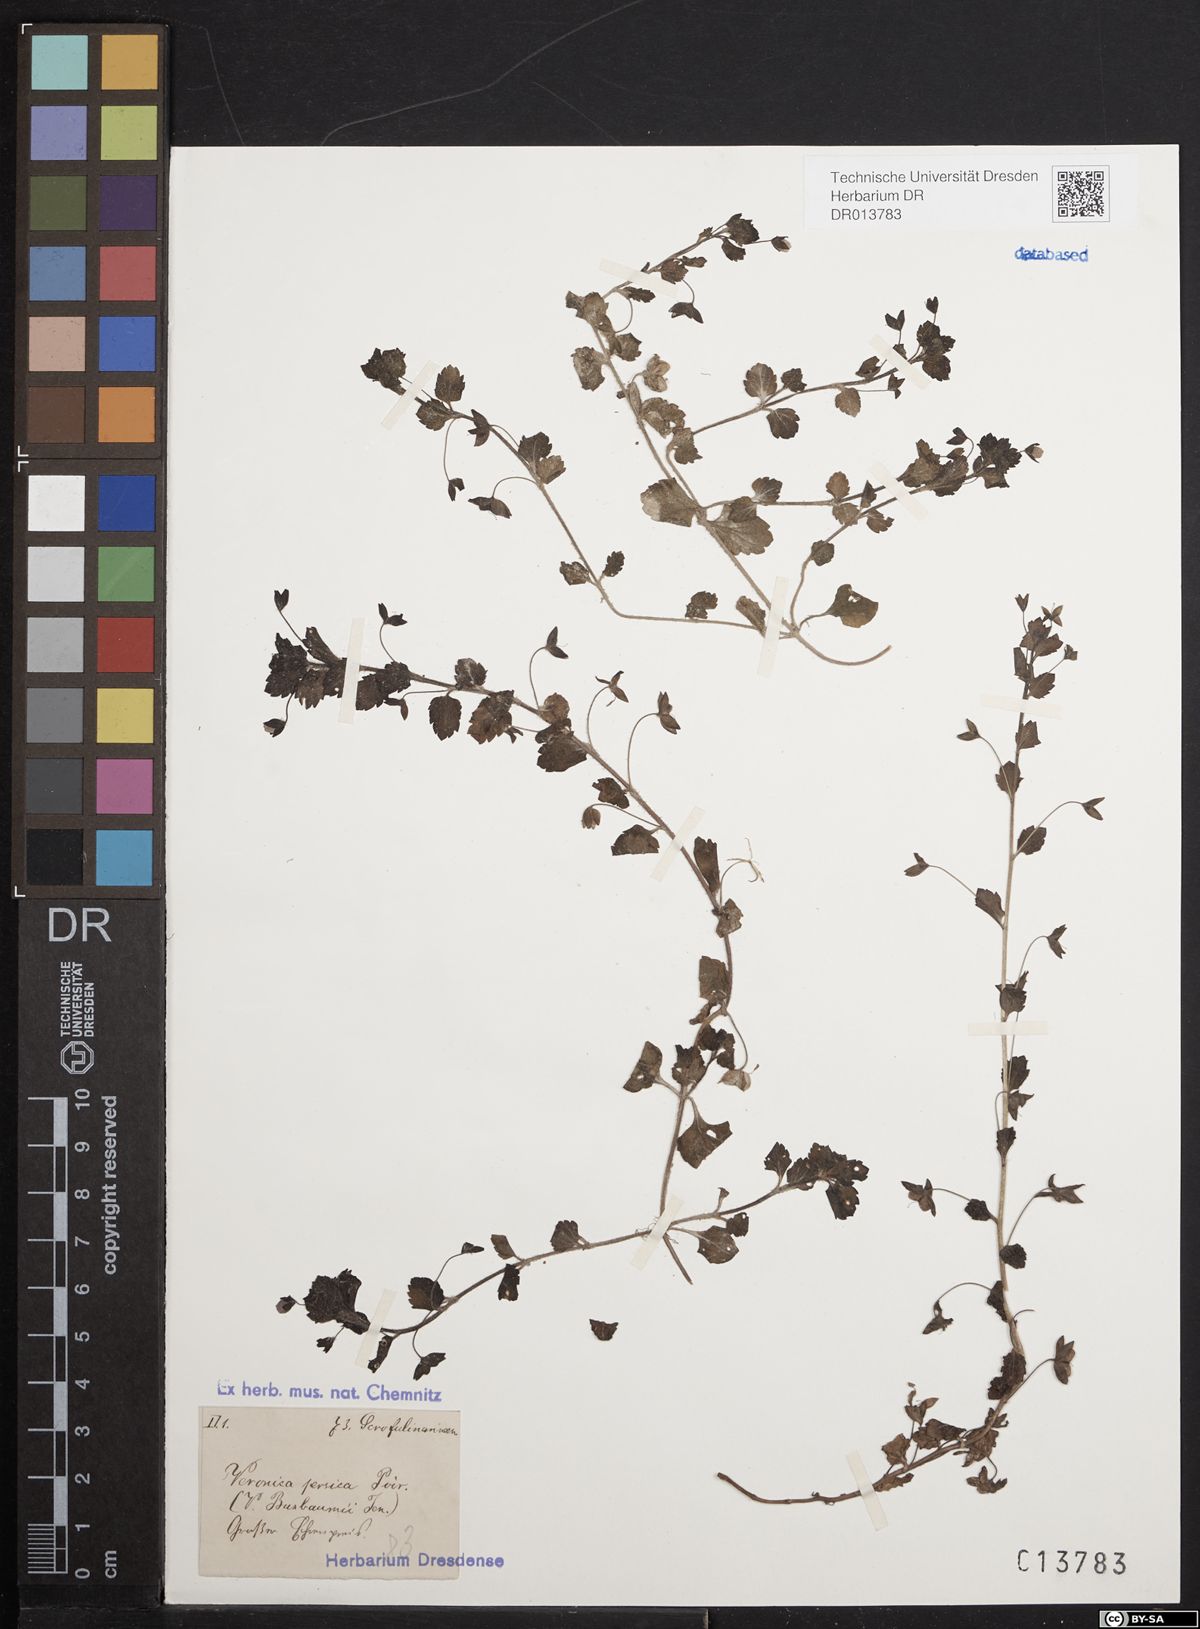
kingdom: Plantae
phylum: Tracheophyta
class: Magnoliopsida
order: Lamiales
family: Plantaginaceae
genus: Veronica
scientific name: Veronica persica
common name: Common field-speedwell
